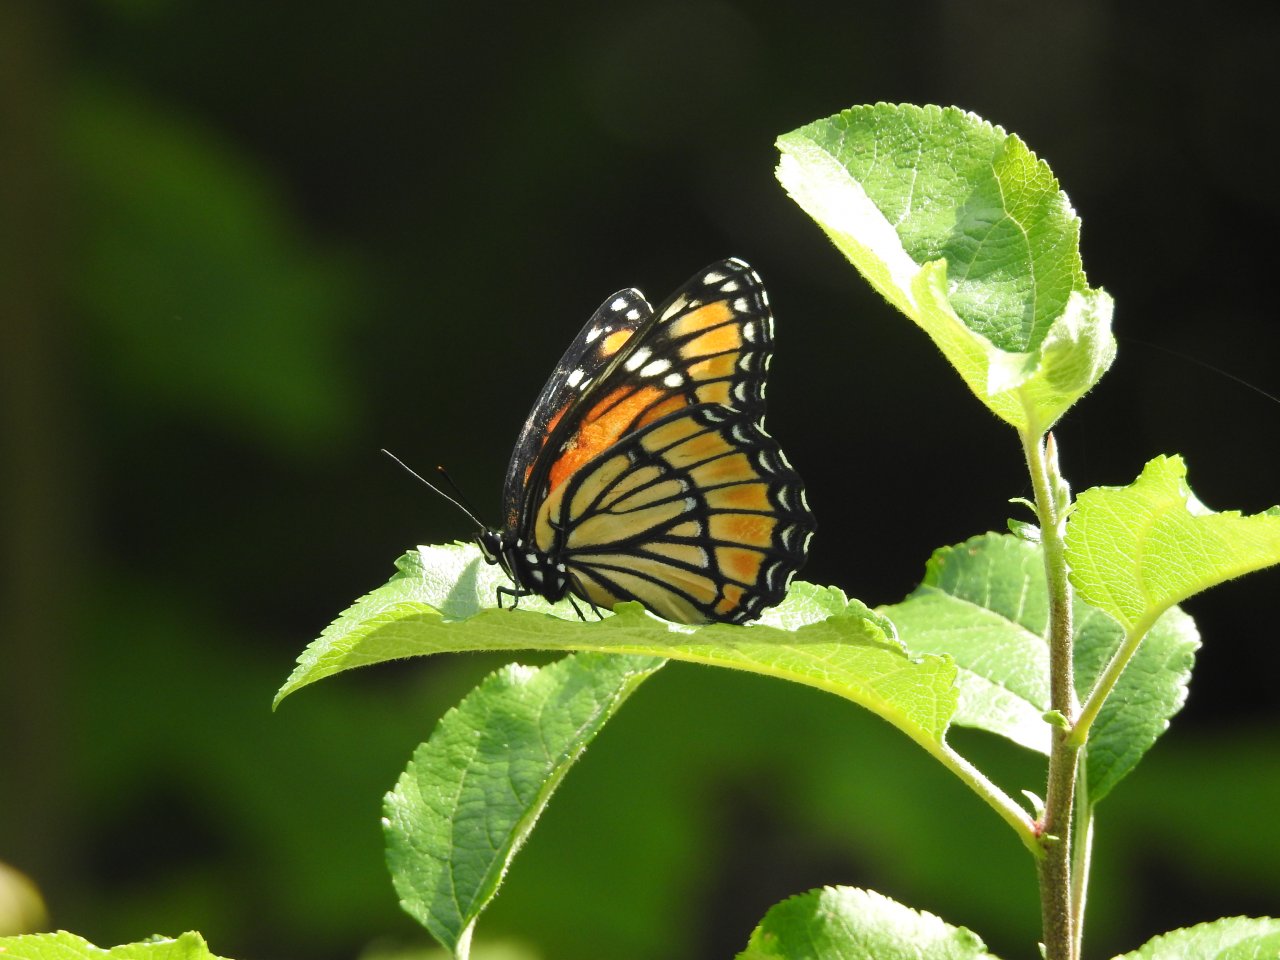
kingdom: Animalia
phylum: Arthropoda
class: Insecta
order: Lepidoptera
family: Nymphalidae
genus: Limenitis
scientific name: Limenitis archippus
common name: Viceroy
